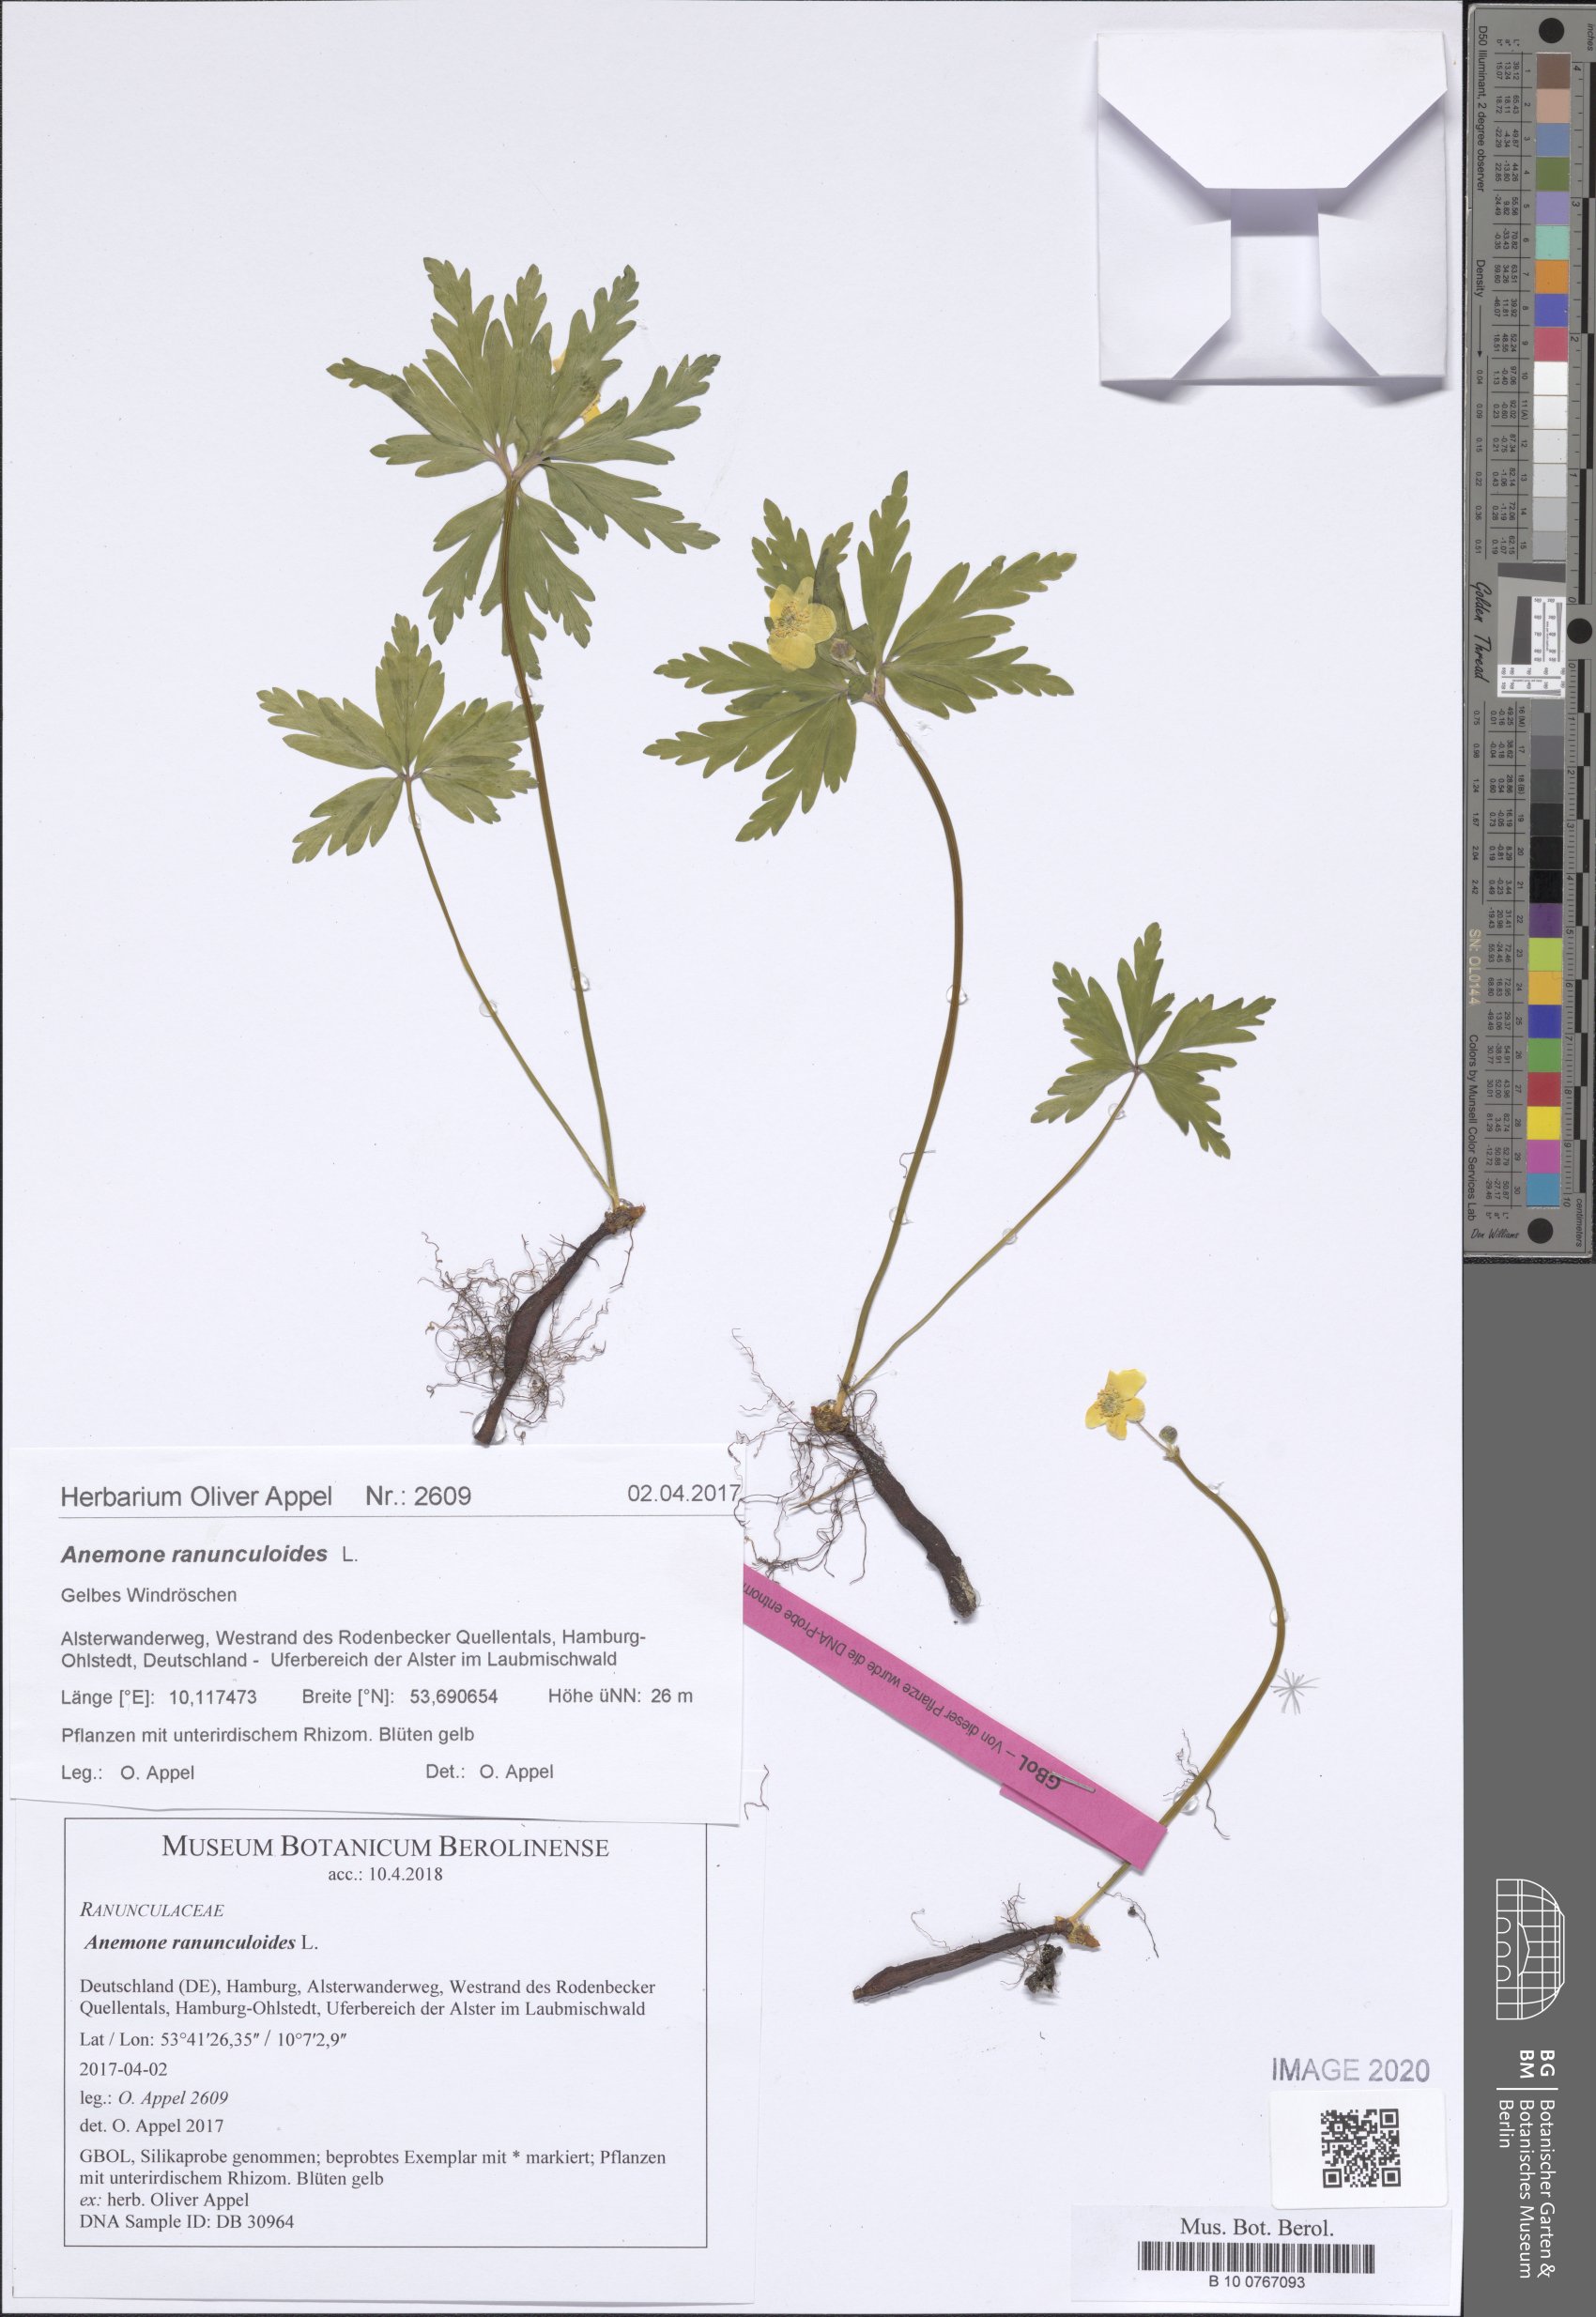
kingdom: Plantae
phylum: Tracheophyta
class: Magnoliopsida
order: Ranunculales
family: Ranunculaceae
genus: Anemone
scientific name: Anemone ranunculoides
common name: Yellow anemone
